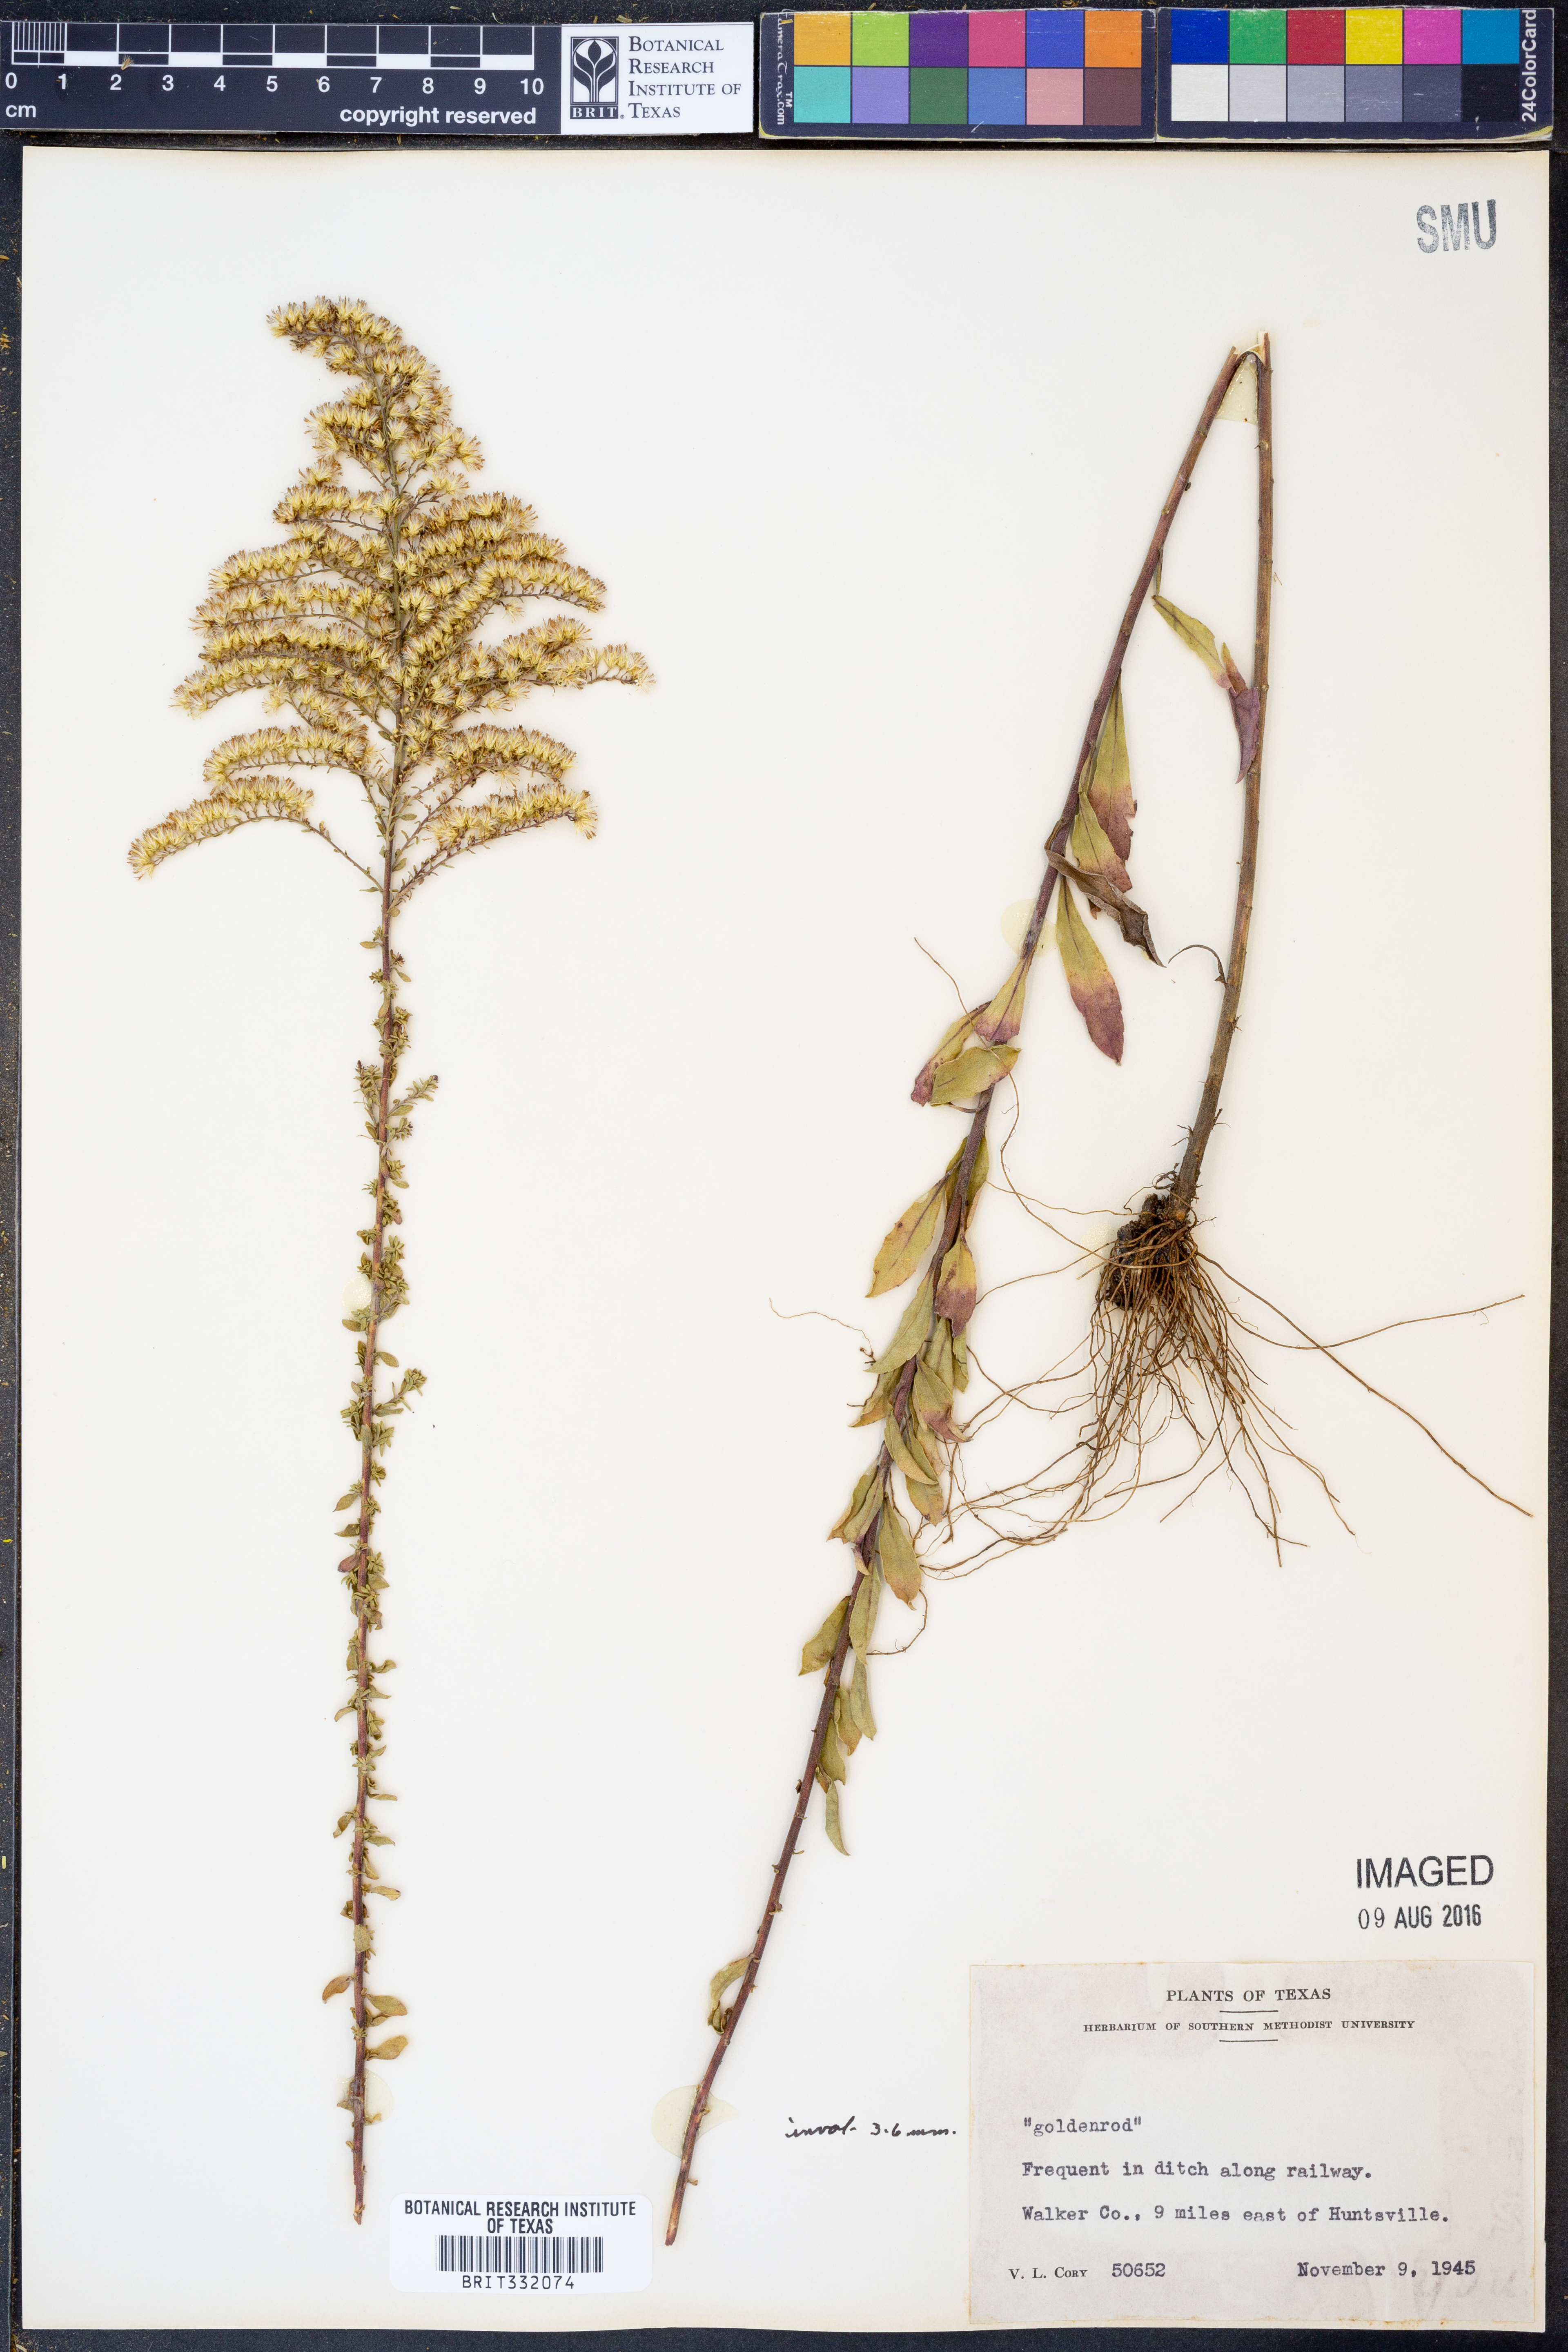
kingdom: Plantae
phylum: Tracheophyta
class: Magnoliopsida
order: Asterales
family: Asteraceae
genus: Solidago
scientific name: Solidago
